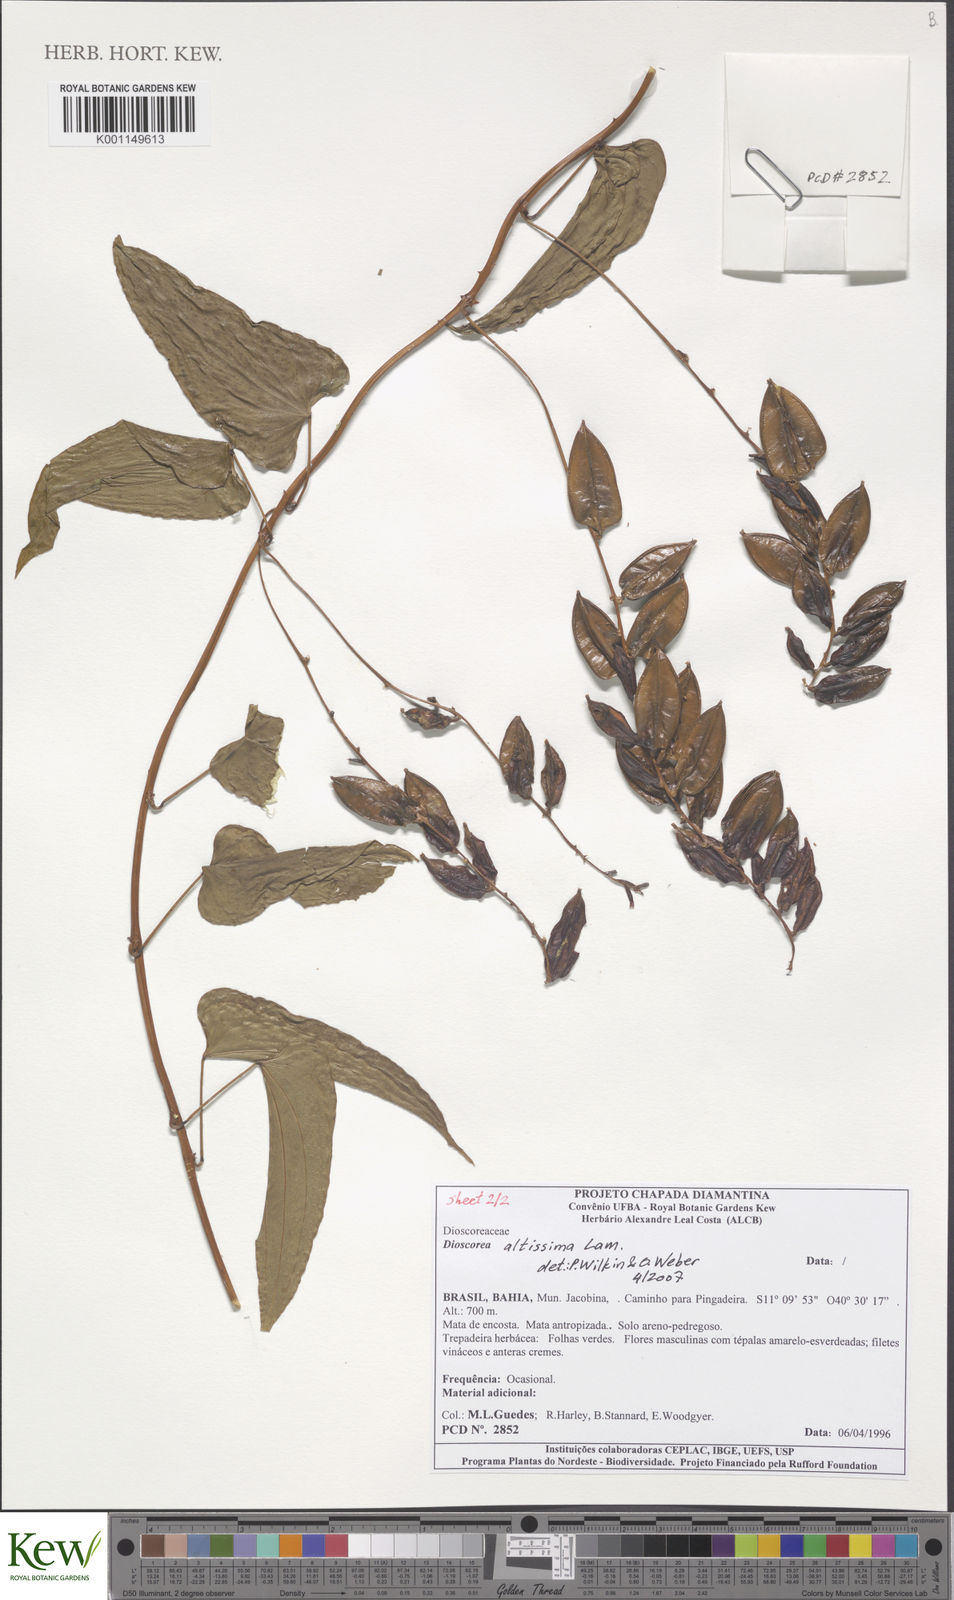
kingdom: Plantae
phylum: Tracheophyta
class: Liliopsida
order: Dioscoreales
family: Dioscoreaceae
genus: Dioscorea
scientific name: Dioscorea chondrocarpa
